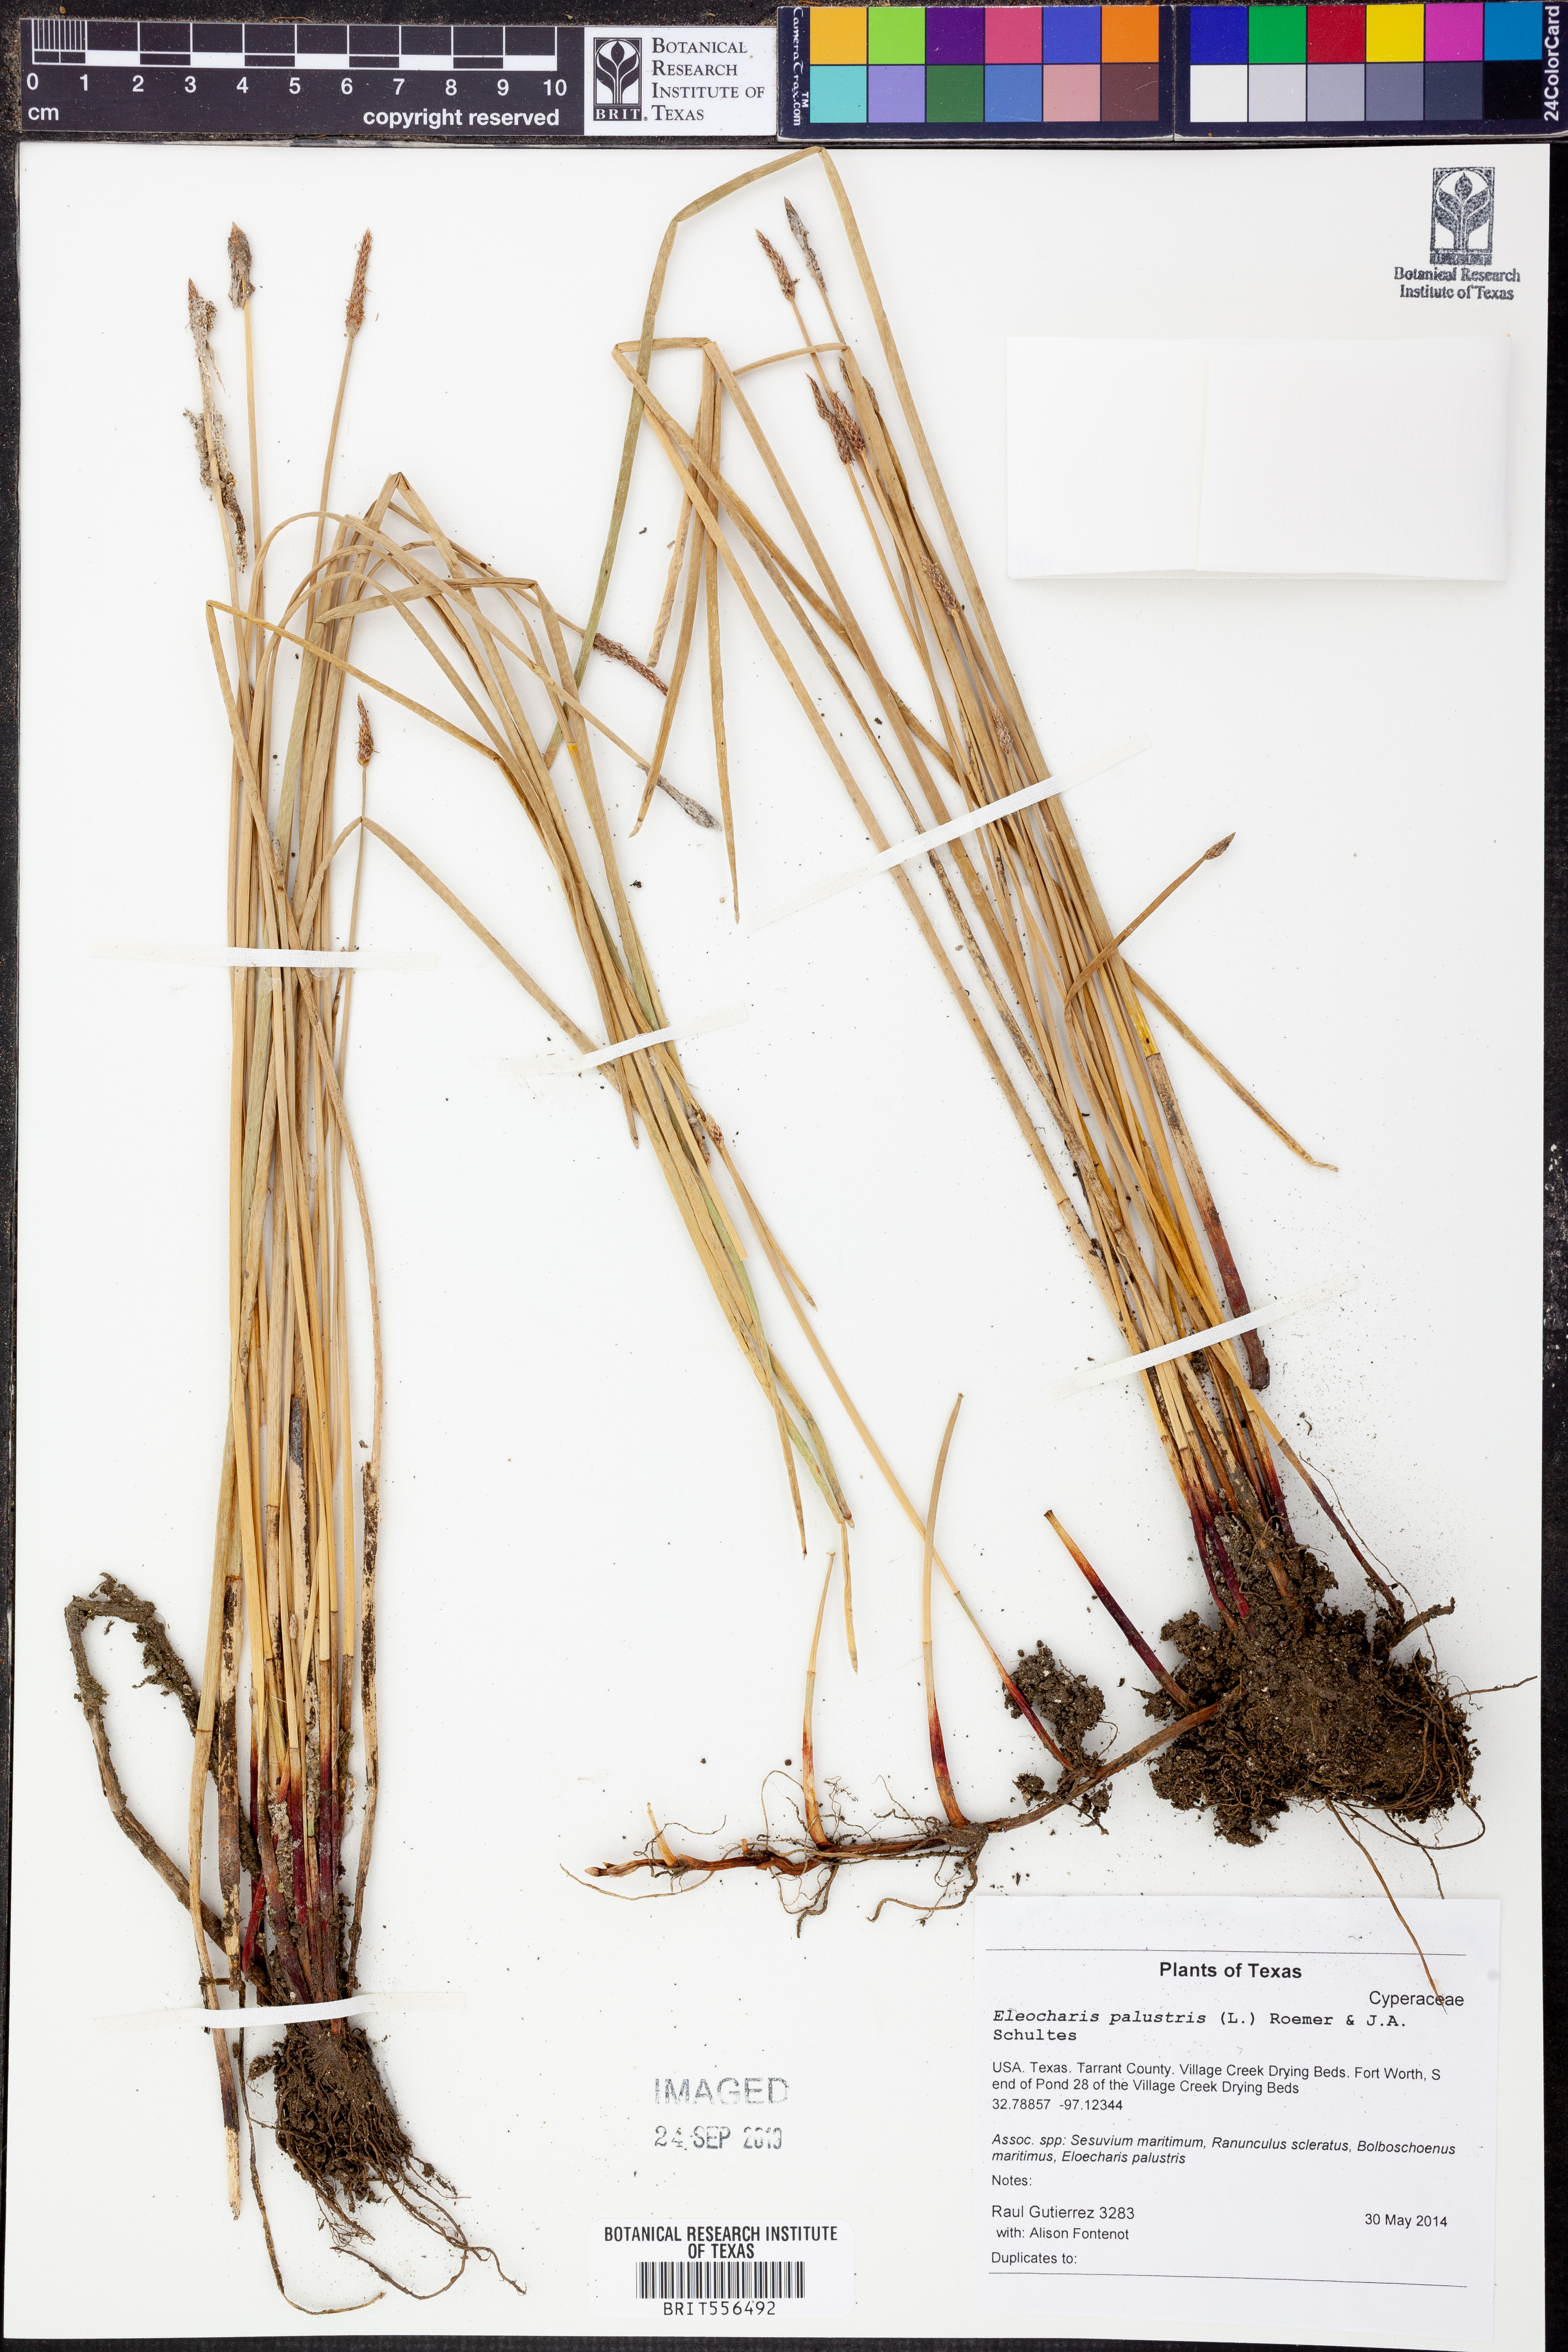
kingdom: Plantae
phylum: Tracheophyta
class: Liliopsida
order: Poales
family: Cyperaceae
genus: Eleocharis
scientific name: Eleocharis palustris
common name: Common spike-rush
